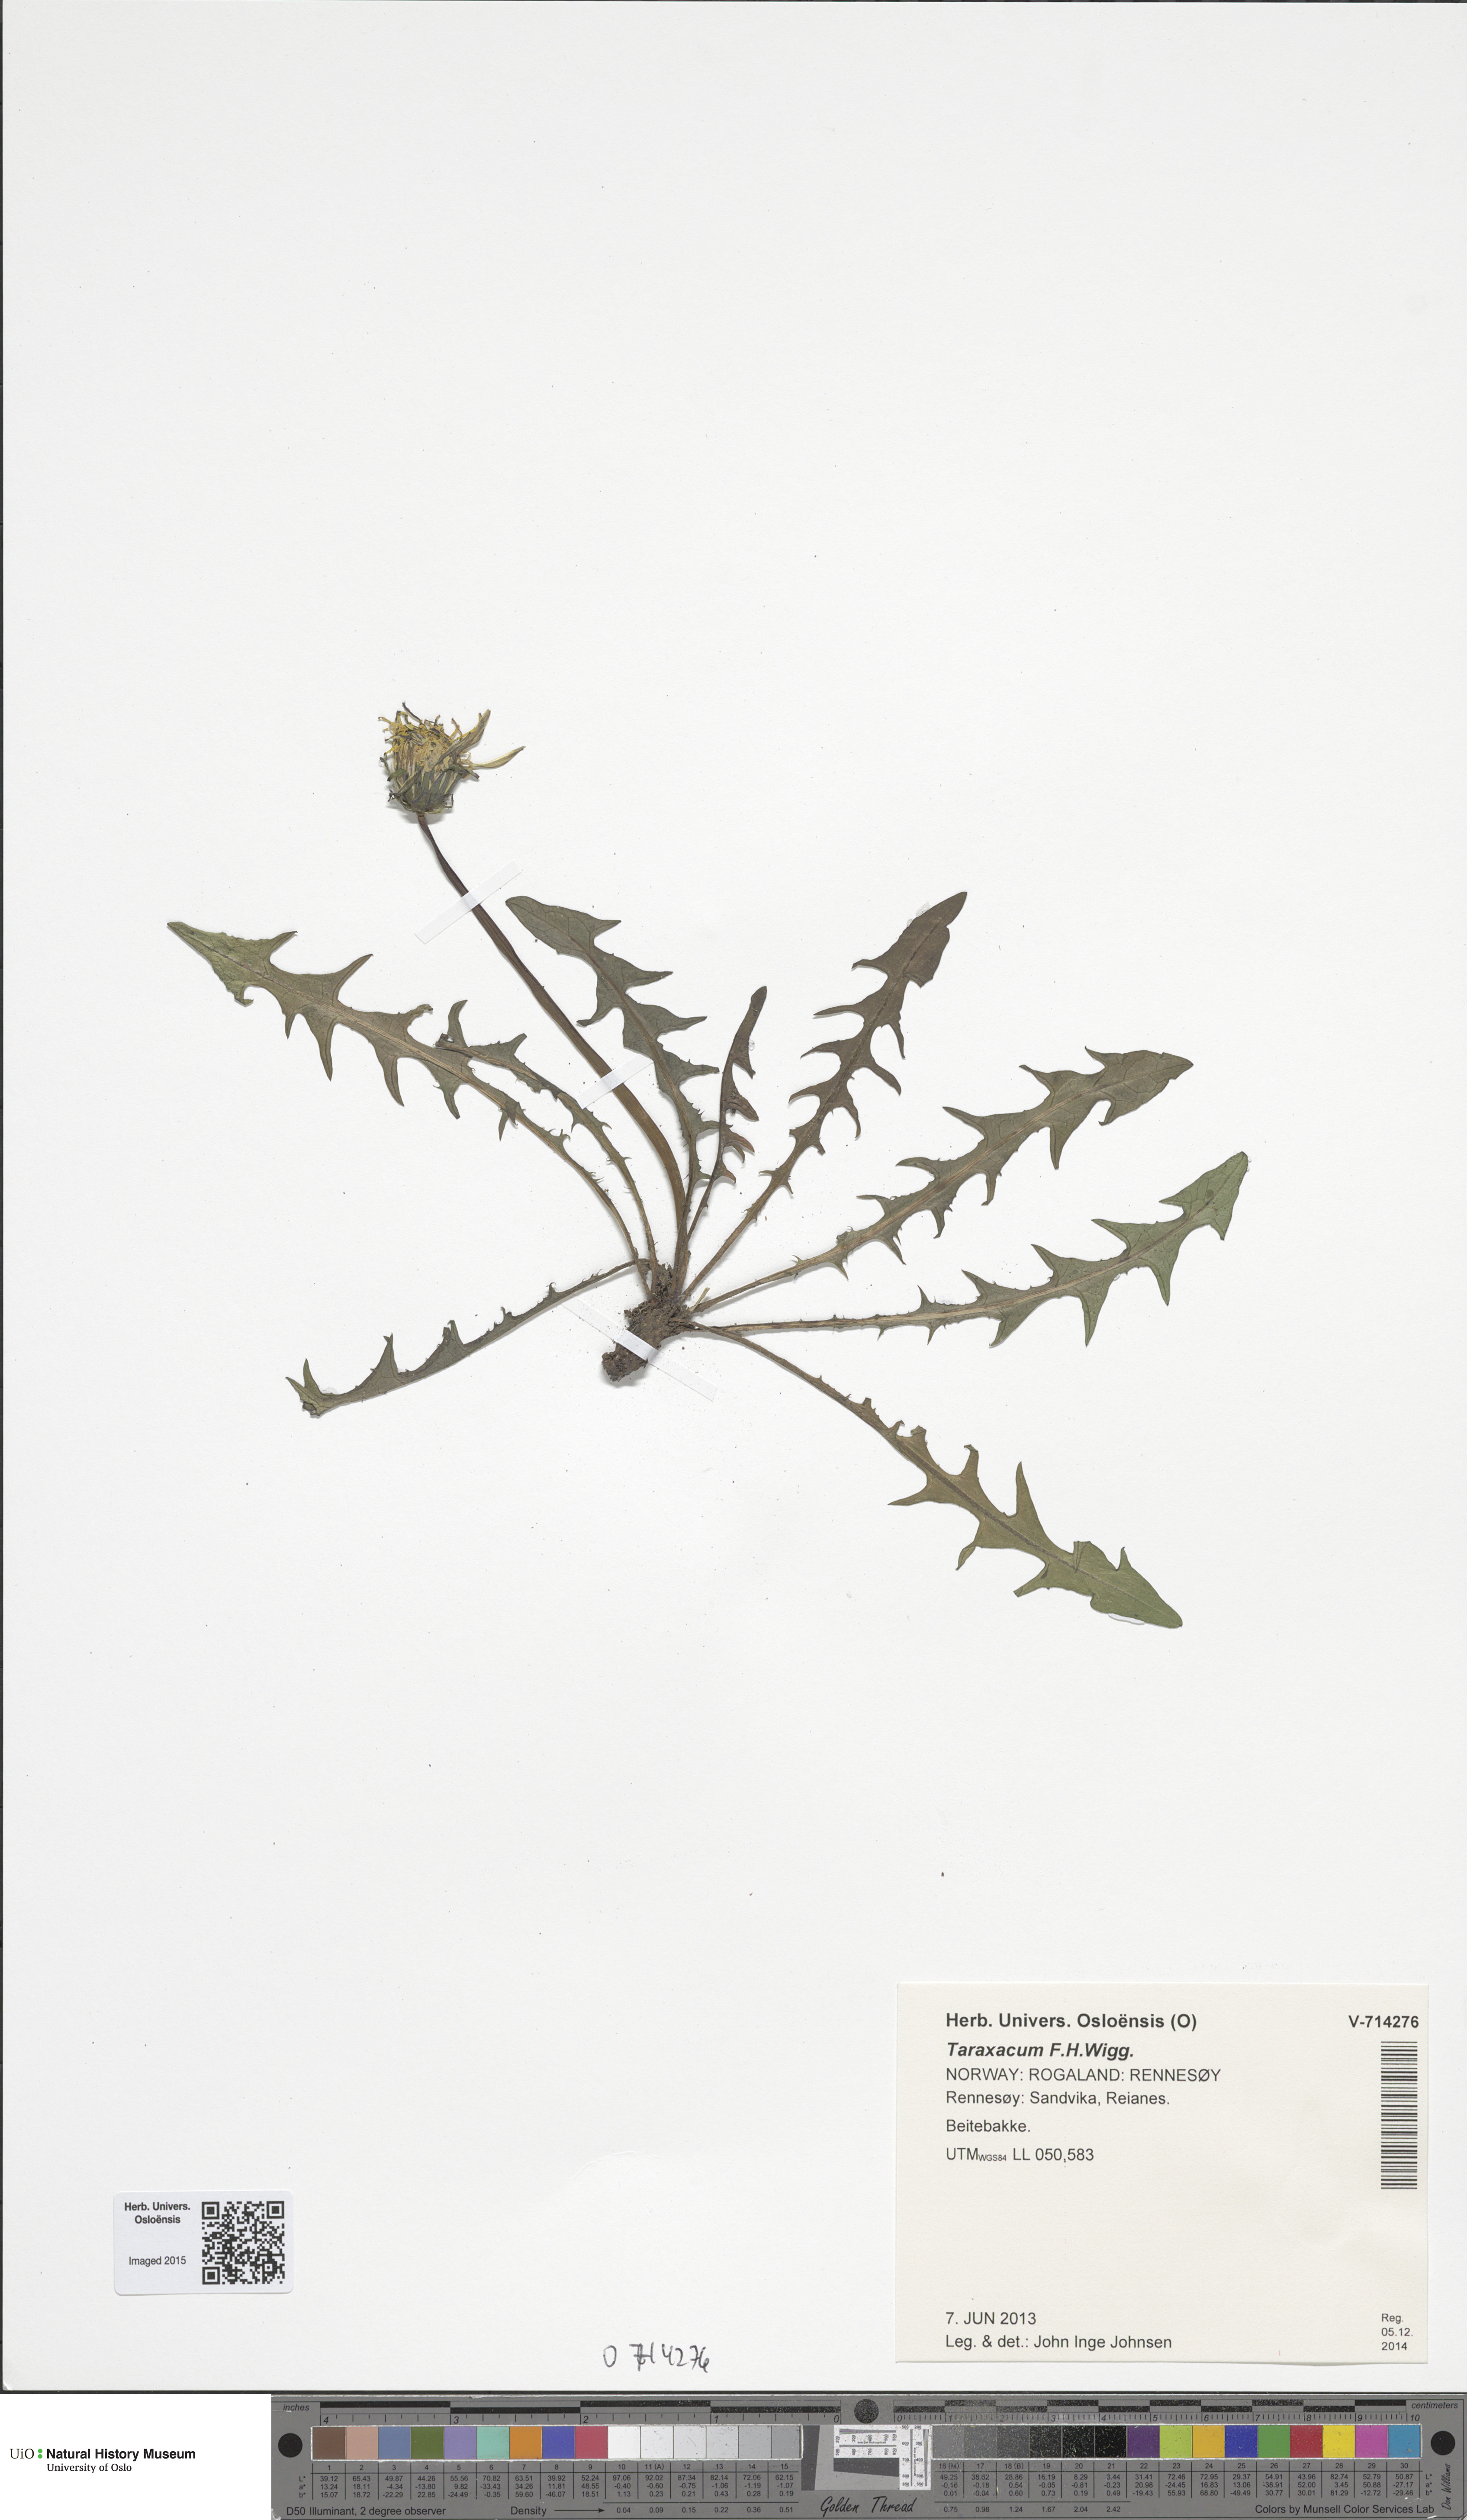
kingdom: Plantae
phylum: Tracheophyta
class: Magnoliopsida
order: Asterales
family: Asteraceae
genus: Taraxacum
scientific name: Taraxacum
